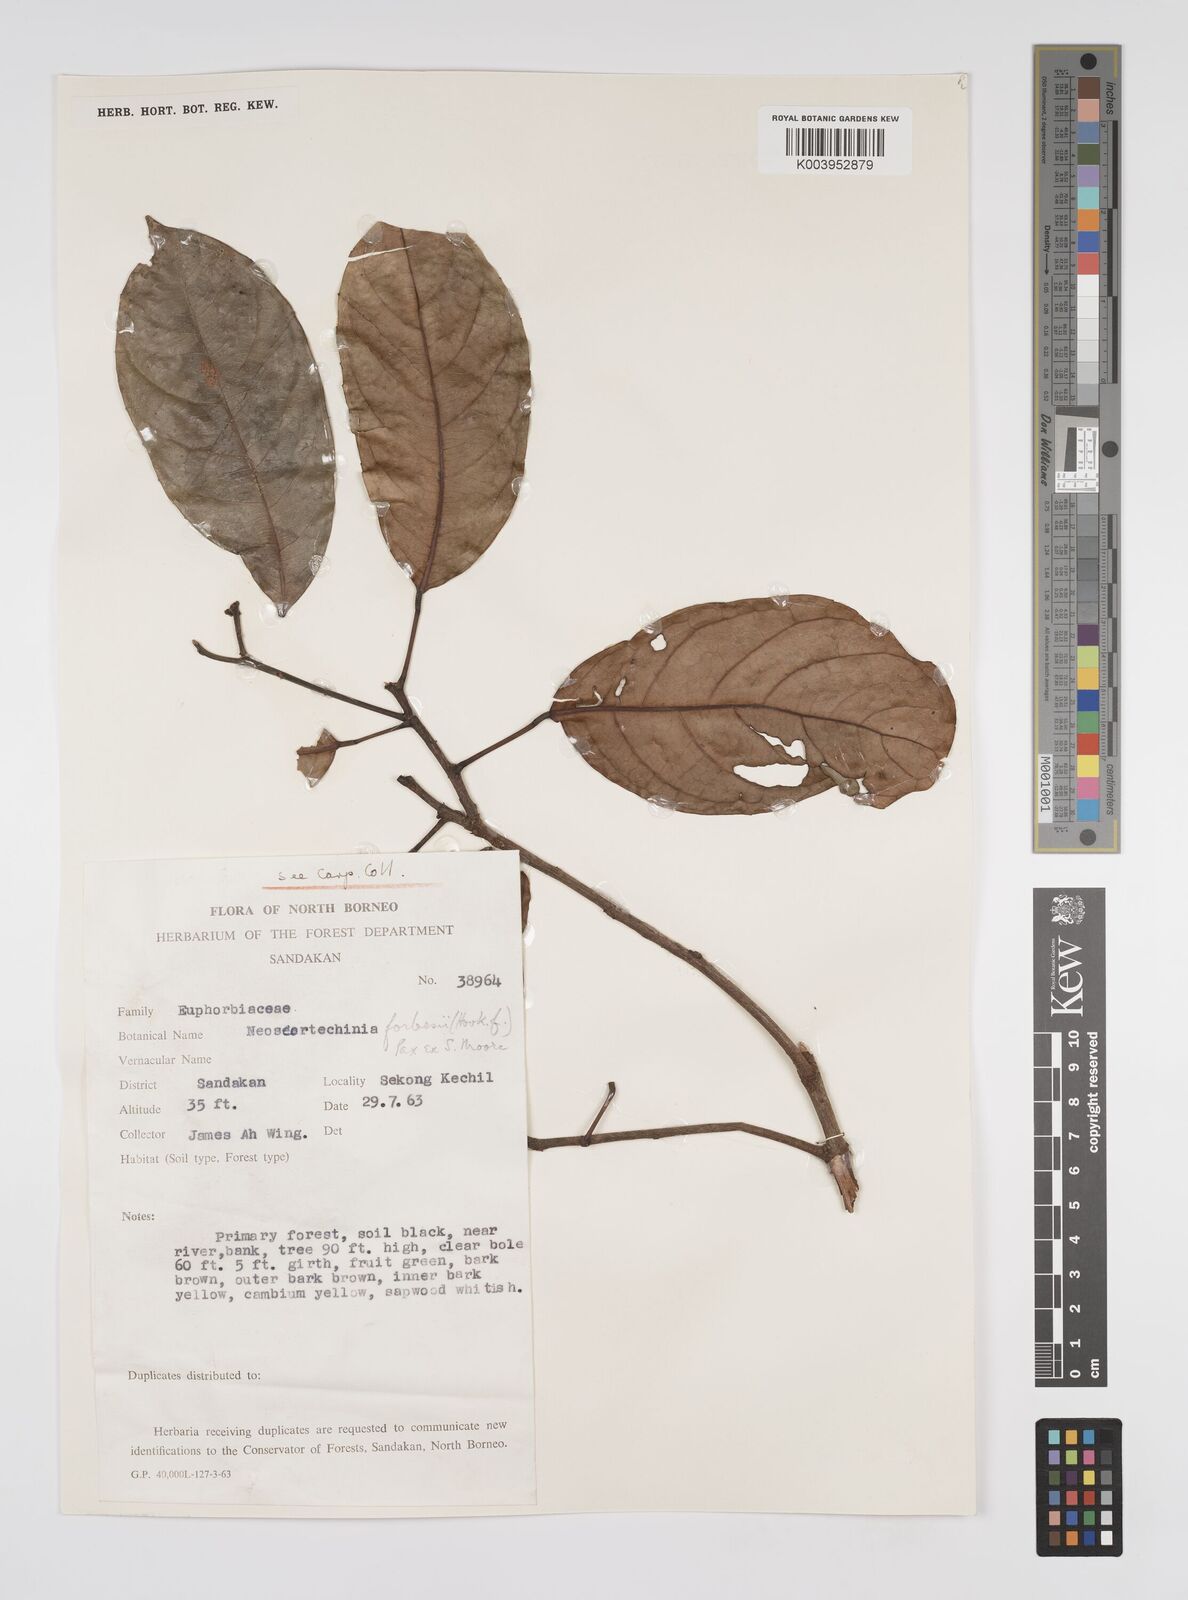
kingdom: Plantae
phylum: Tracheophyta
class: Magnoliopsida
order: Malpighiales
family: Euphorbiaceae
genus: Neoscortechinia
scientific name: Neoscortechinia philippinensis
